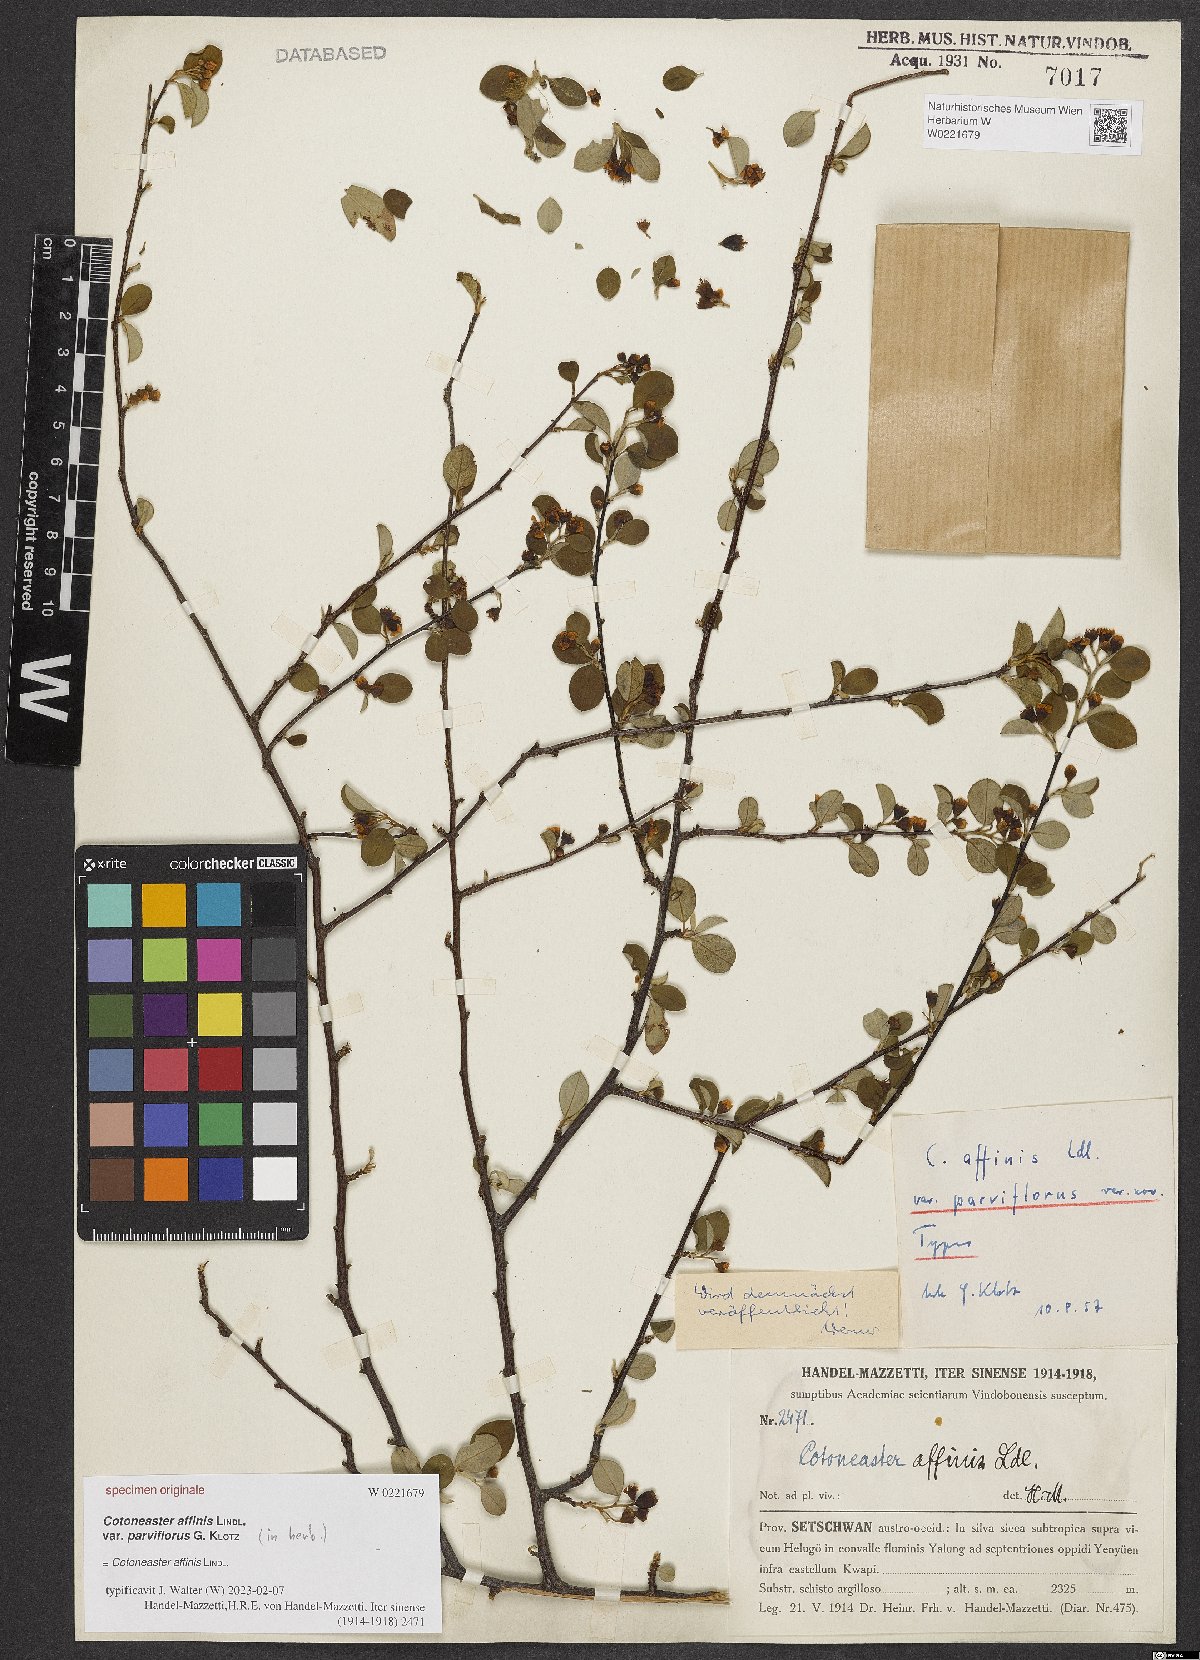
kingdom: Plantae
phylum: Tracheophyta
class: Magnoliopsida
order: Rosales
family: Rosaceae
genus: Cotoneaster
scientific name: Cotoneaster affinis
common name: Purpleberry cotoneaster
